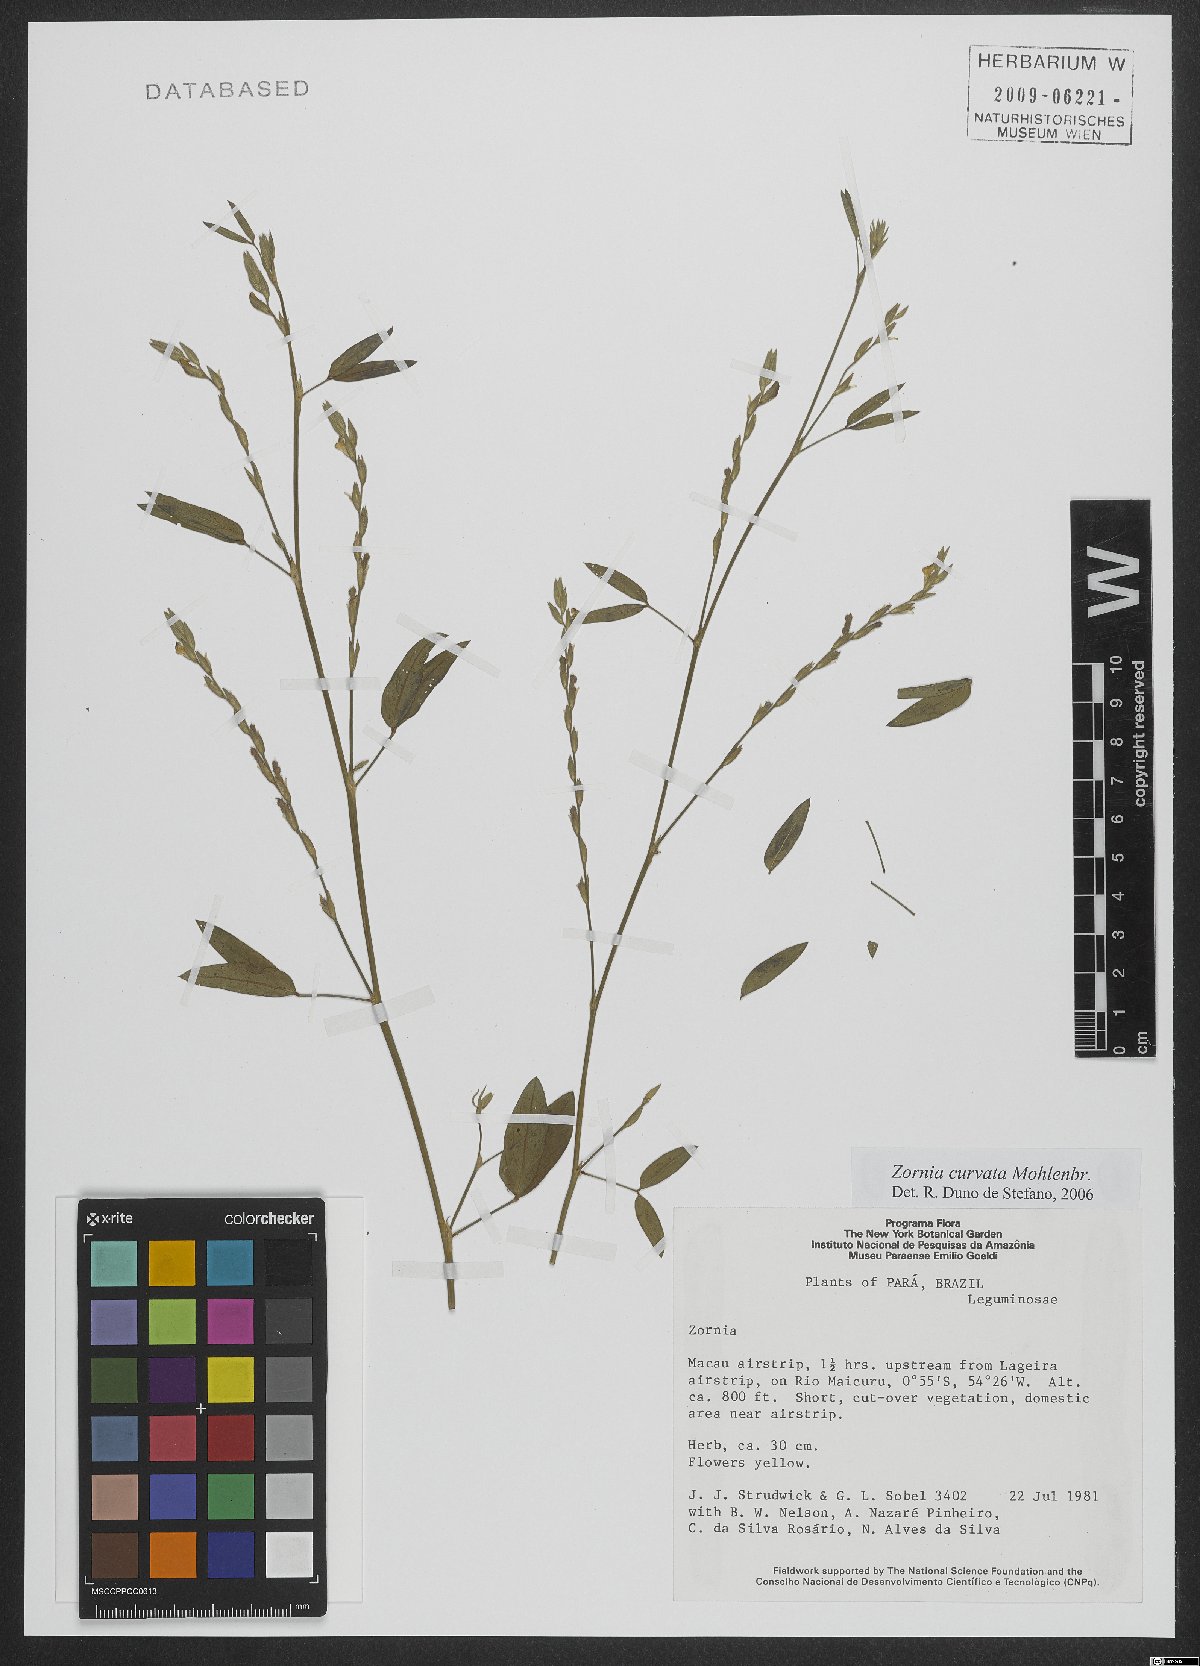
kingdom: Plantae
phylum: Tracheophyta
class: Magnoliopsida
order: Fabales
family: Fabaceae
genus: Zornia
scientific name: Zornia curvata
